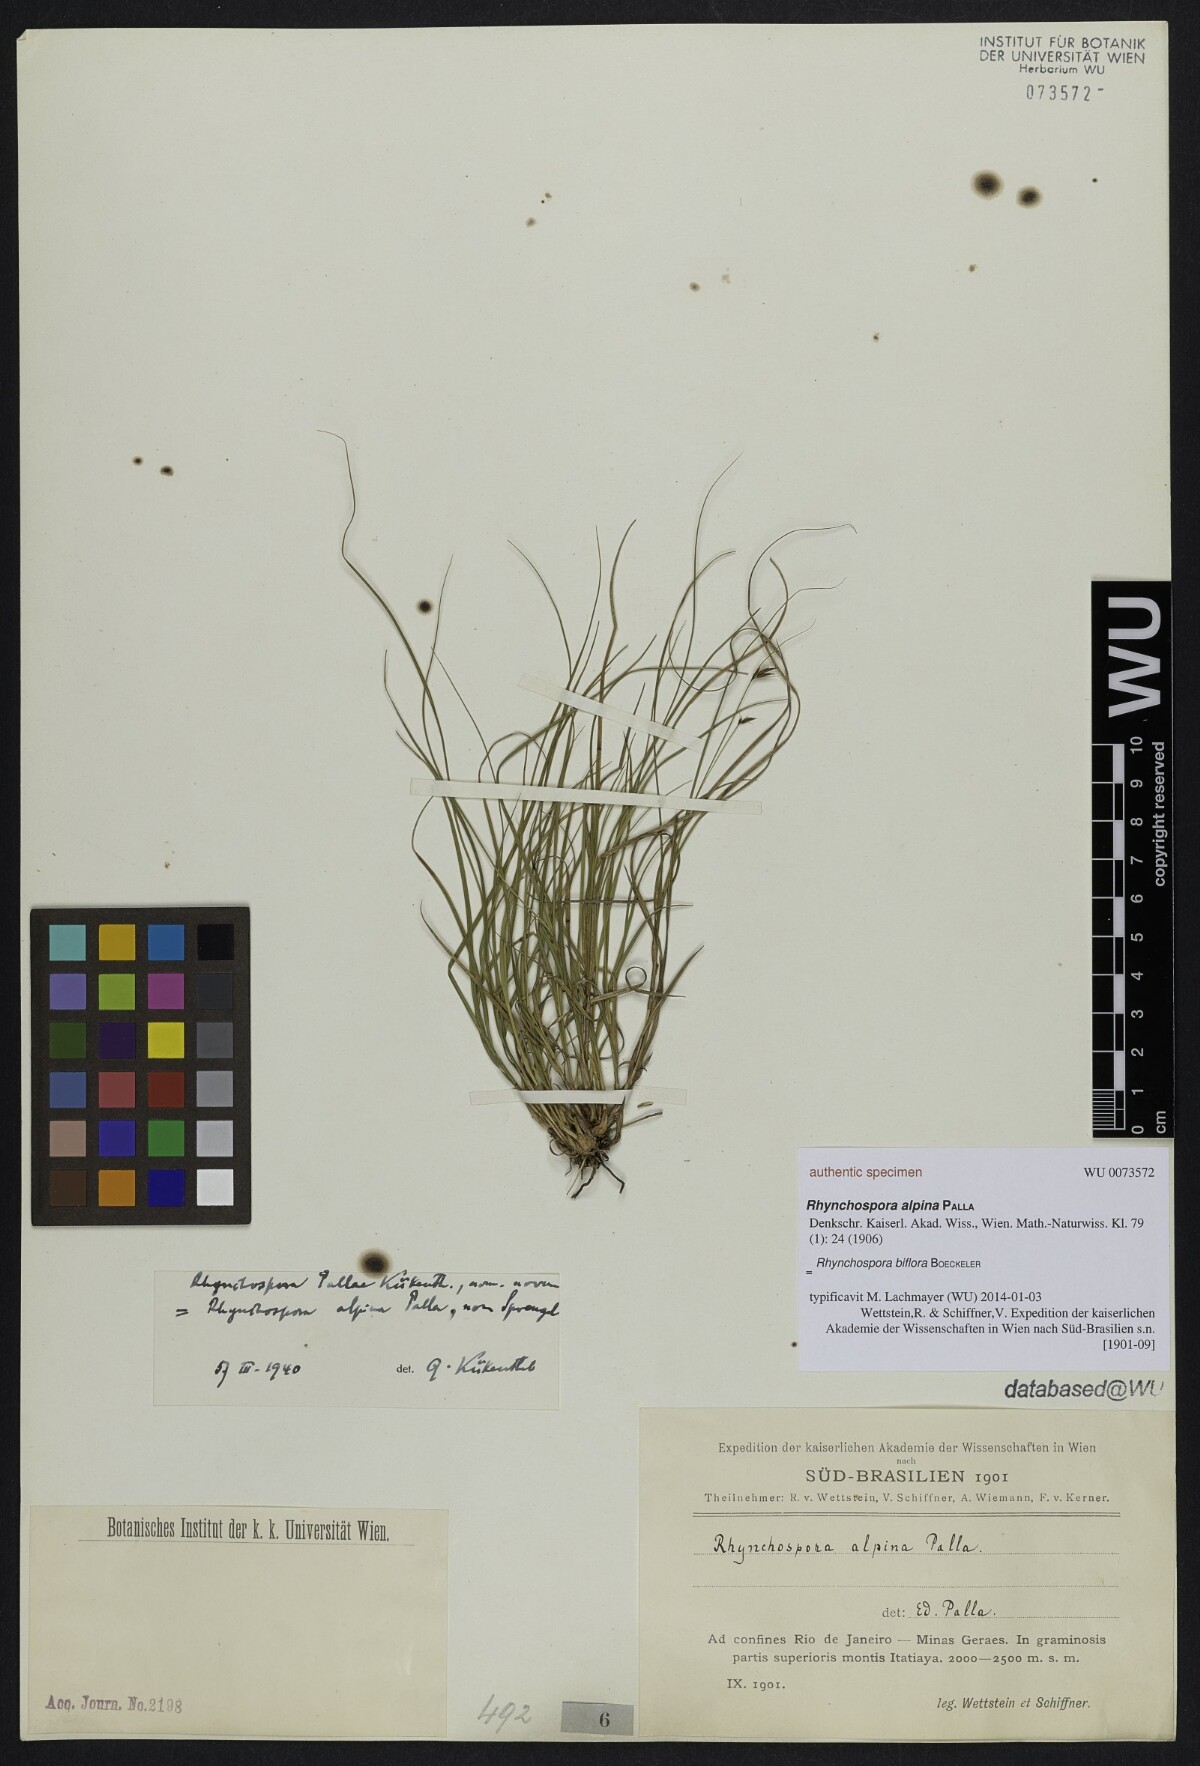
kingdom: Plantae
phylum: Tracheophyta
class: Liliopsida
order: Poales
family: Cyperaceae
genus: Rhynchospora
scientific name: Rhynchospora biflora
